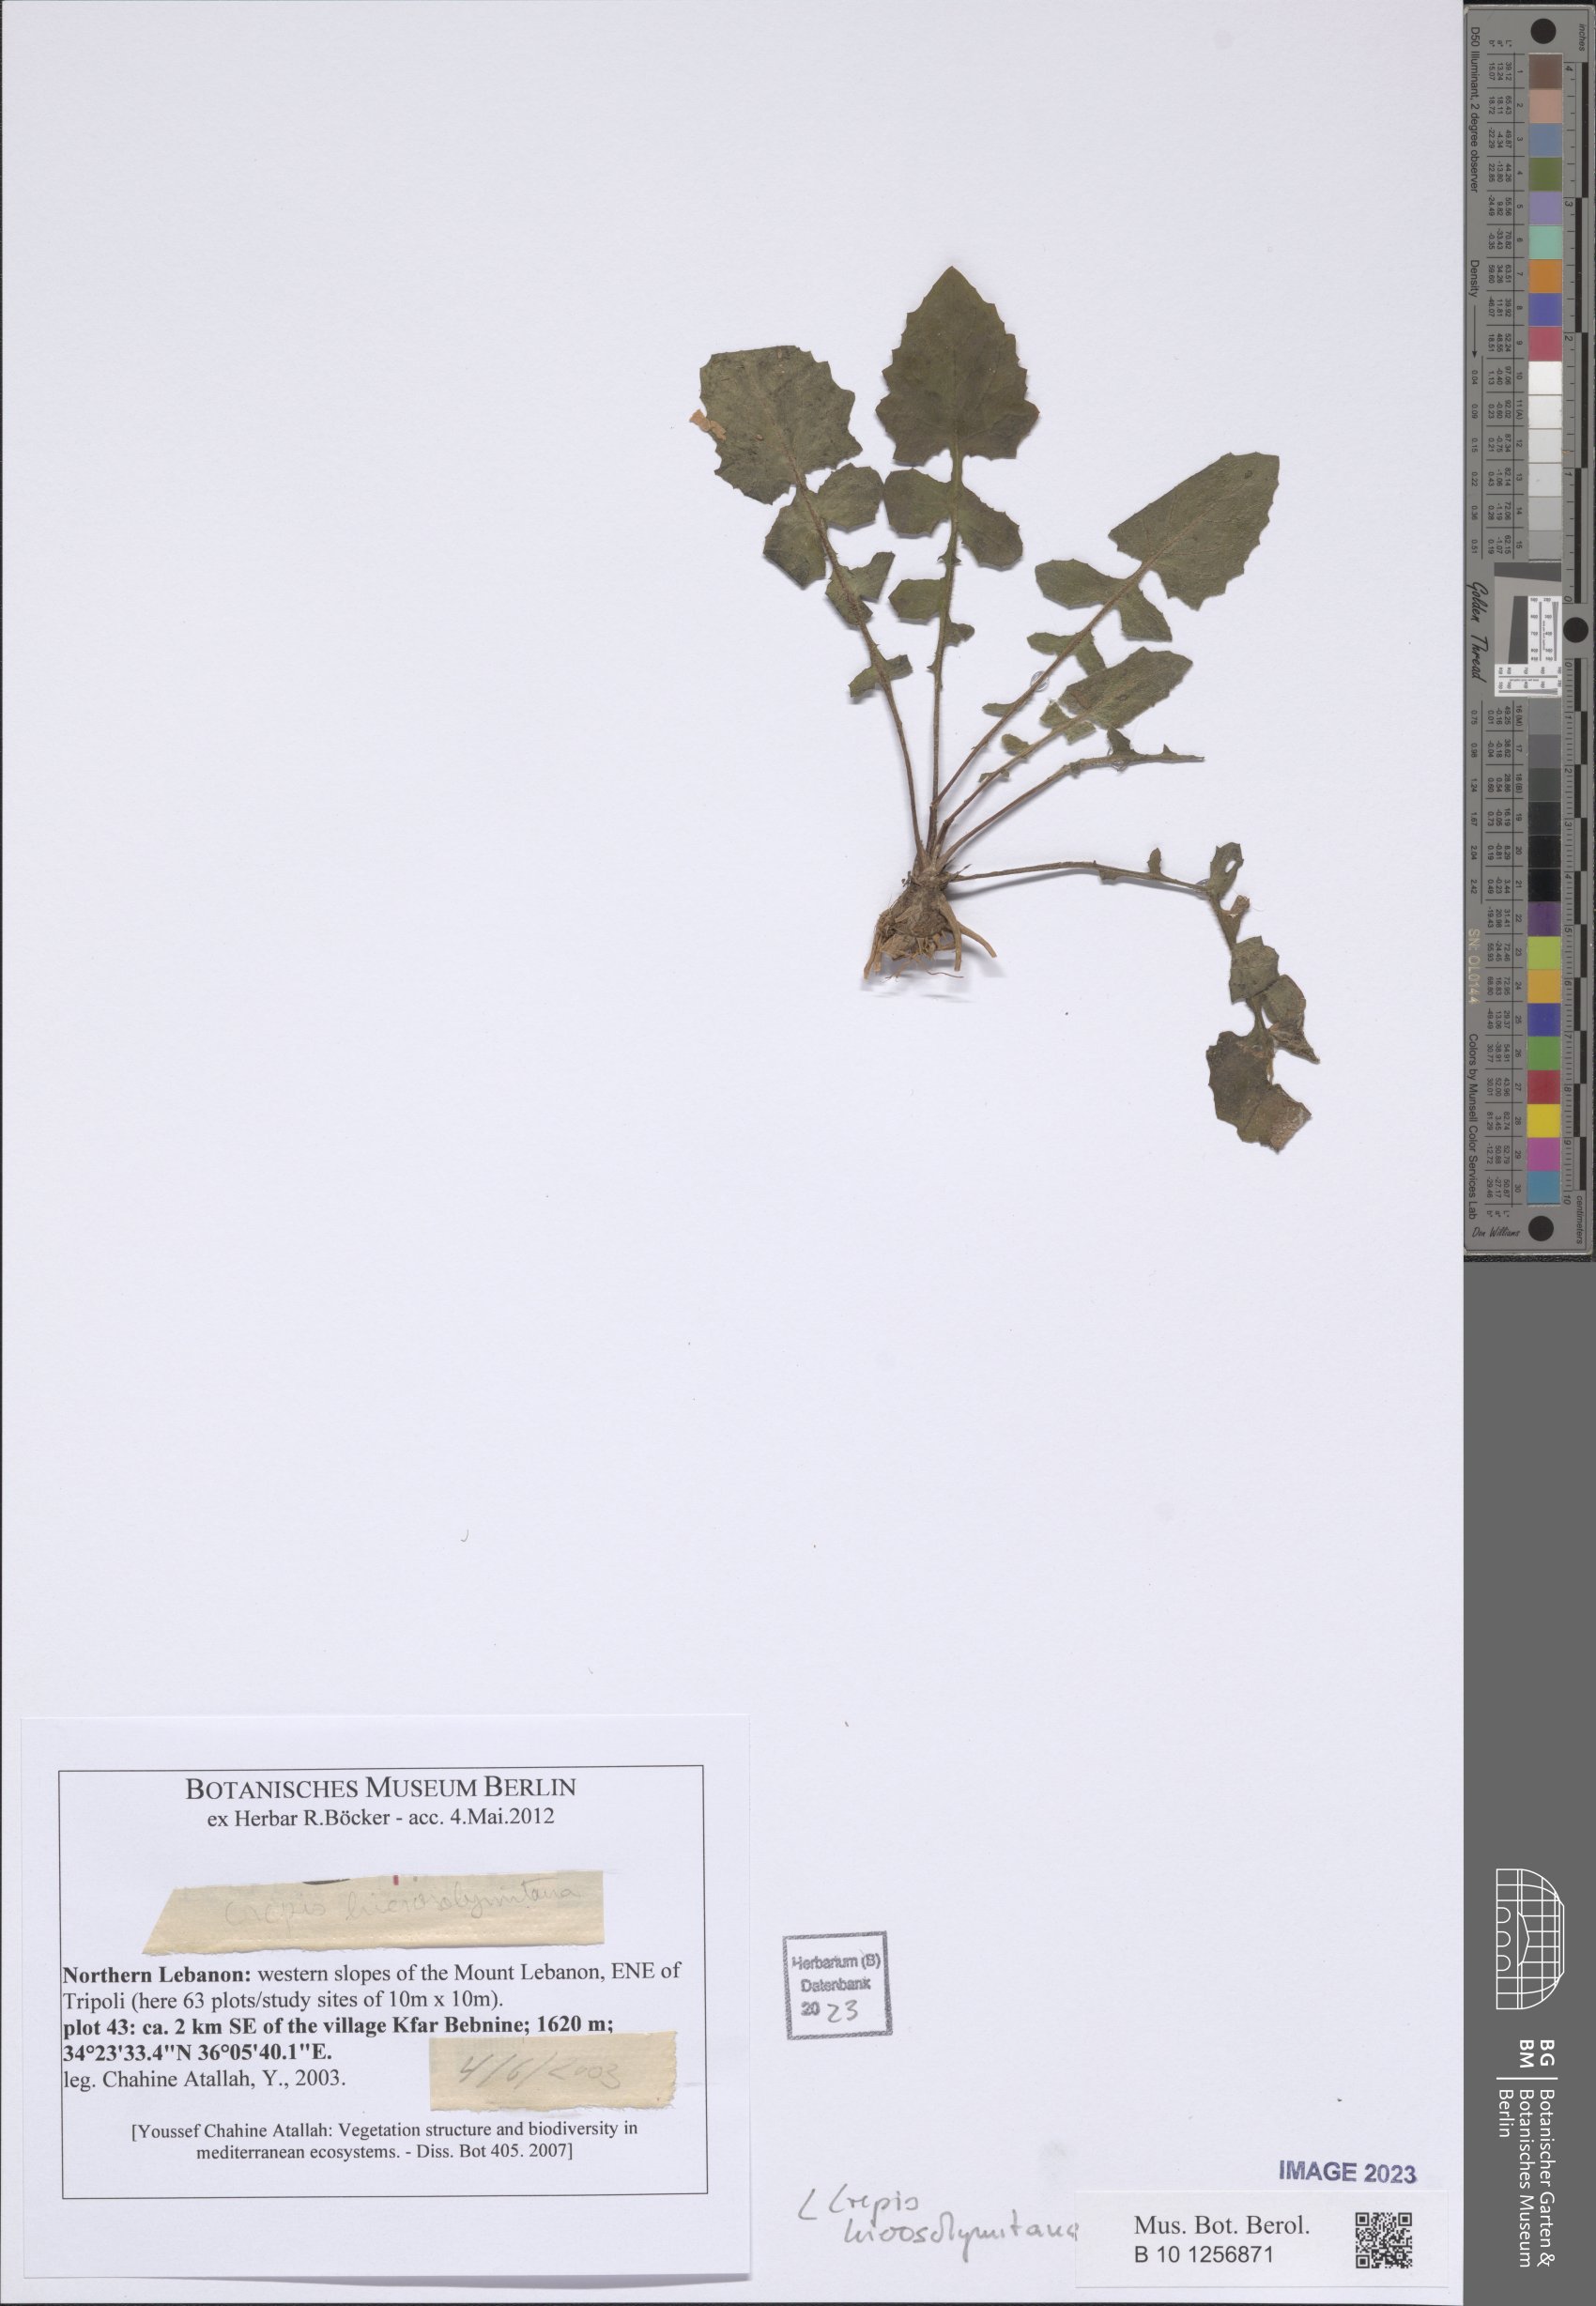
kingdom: Plantae
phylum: Tracheophyta
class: Magnoliopsida
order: Asterales
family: Asteraceae
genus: Crepis
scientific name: Crepis hierosolymitana
